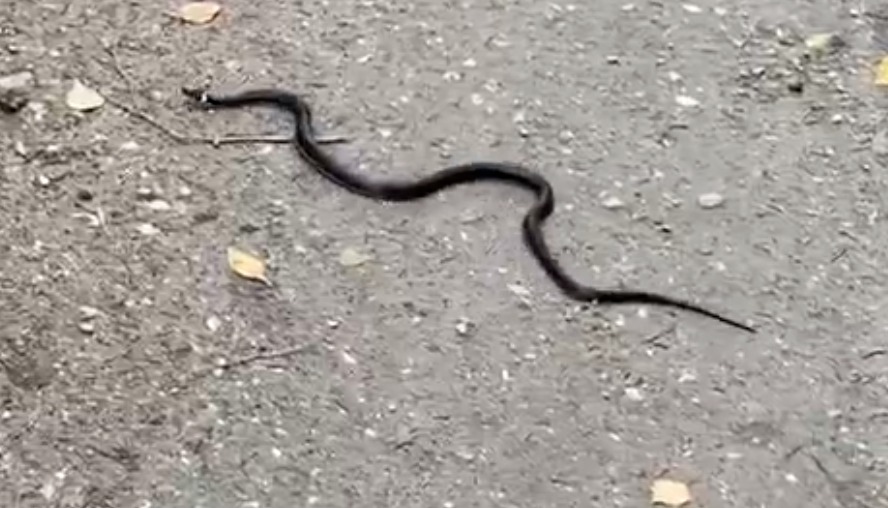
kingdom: Animalia
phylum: Chordata
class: Squamata
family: Colubridae
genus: Natrix
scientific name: Natrix natrix
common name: Snog
